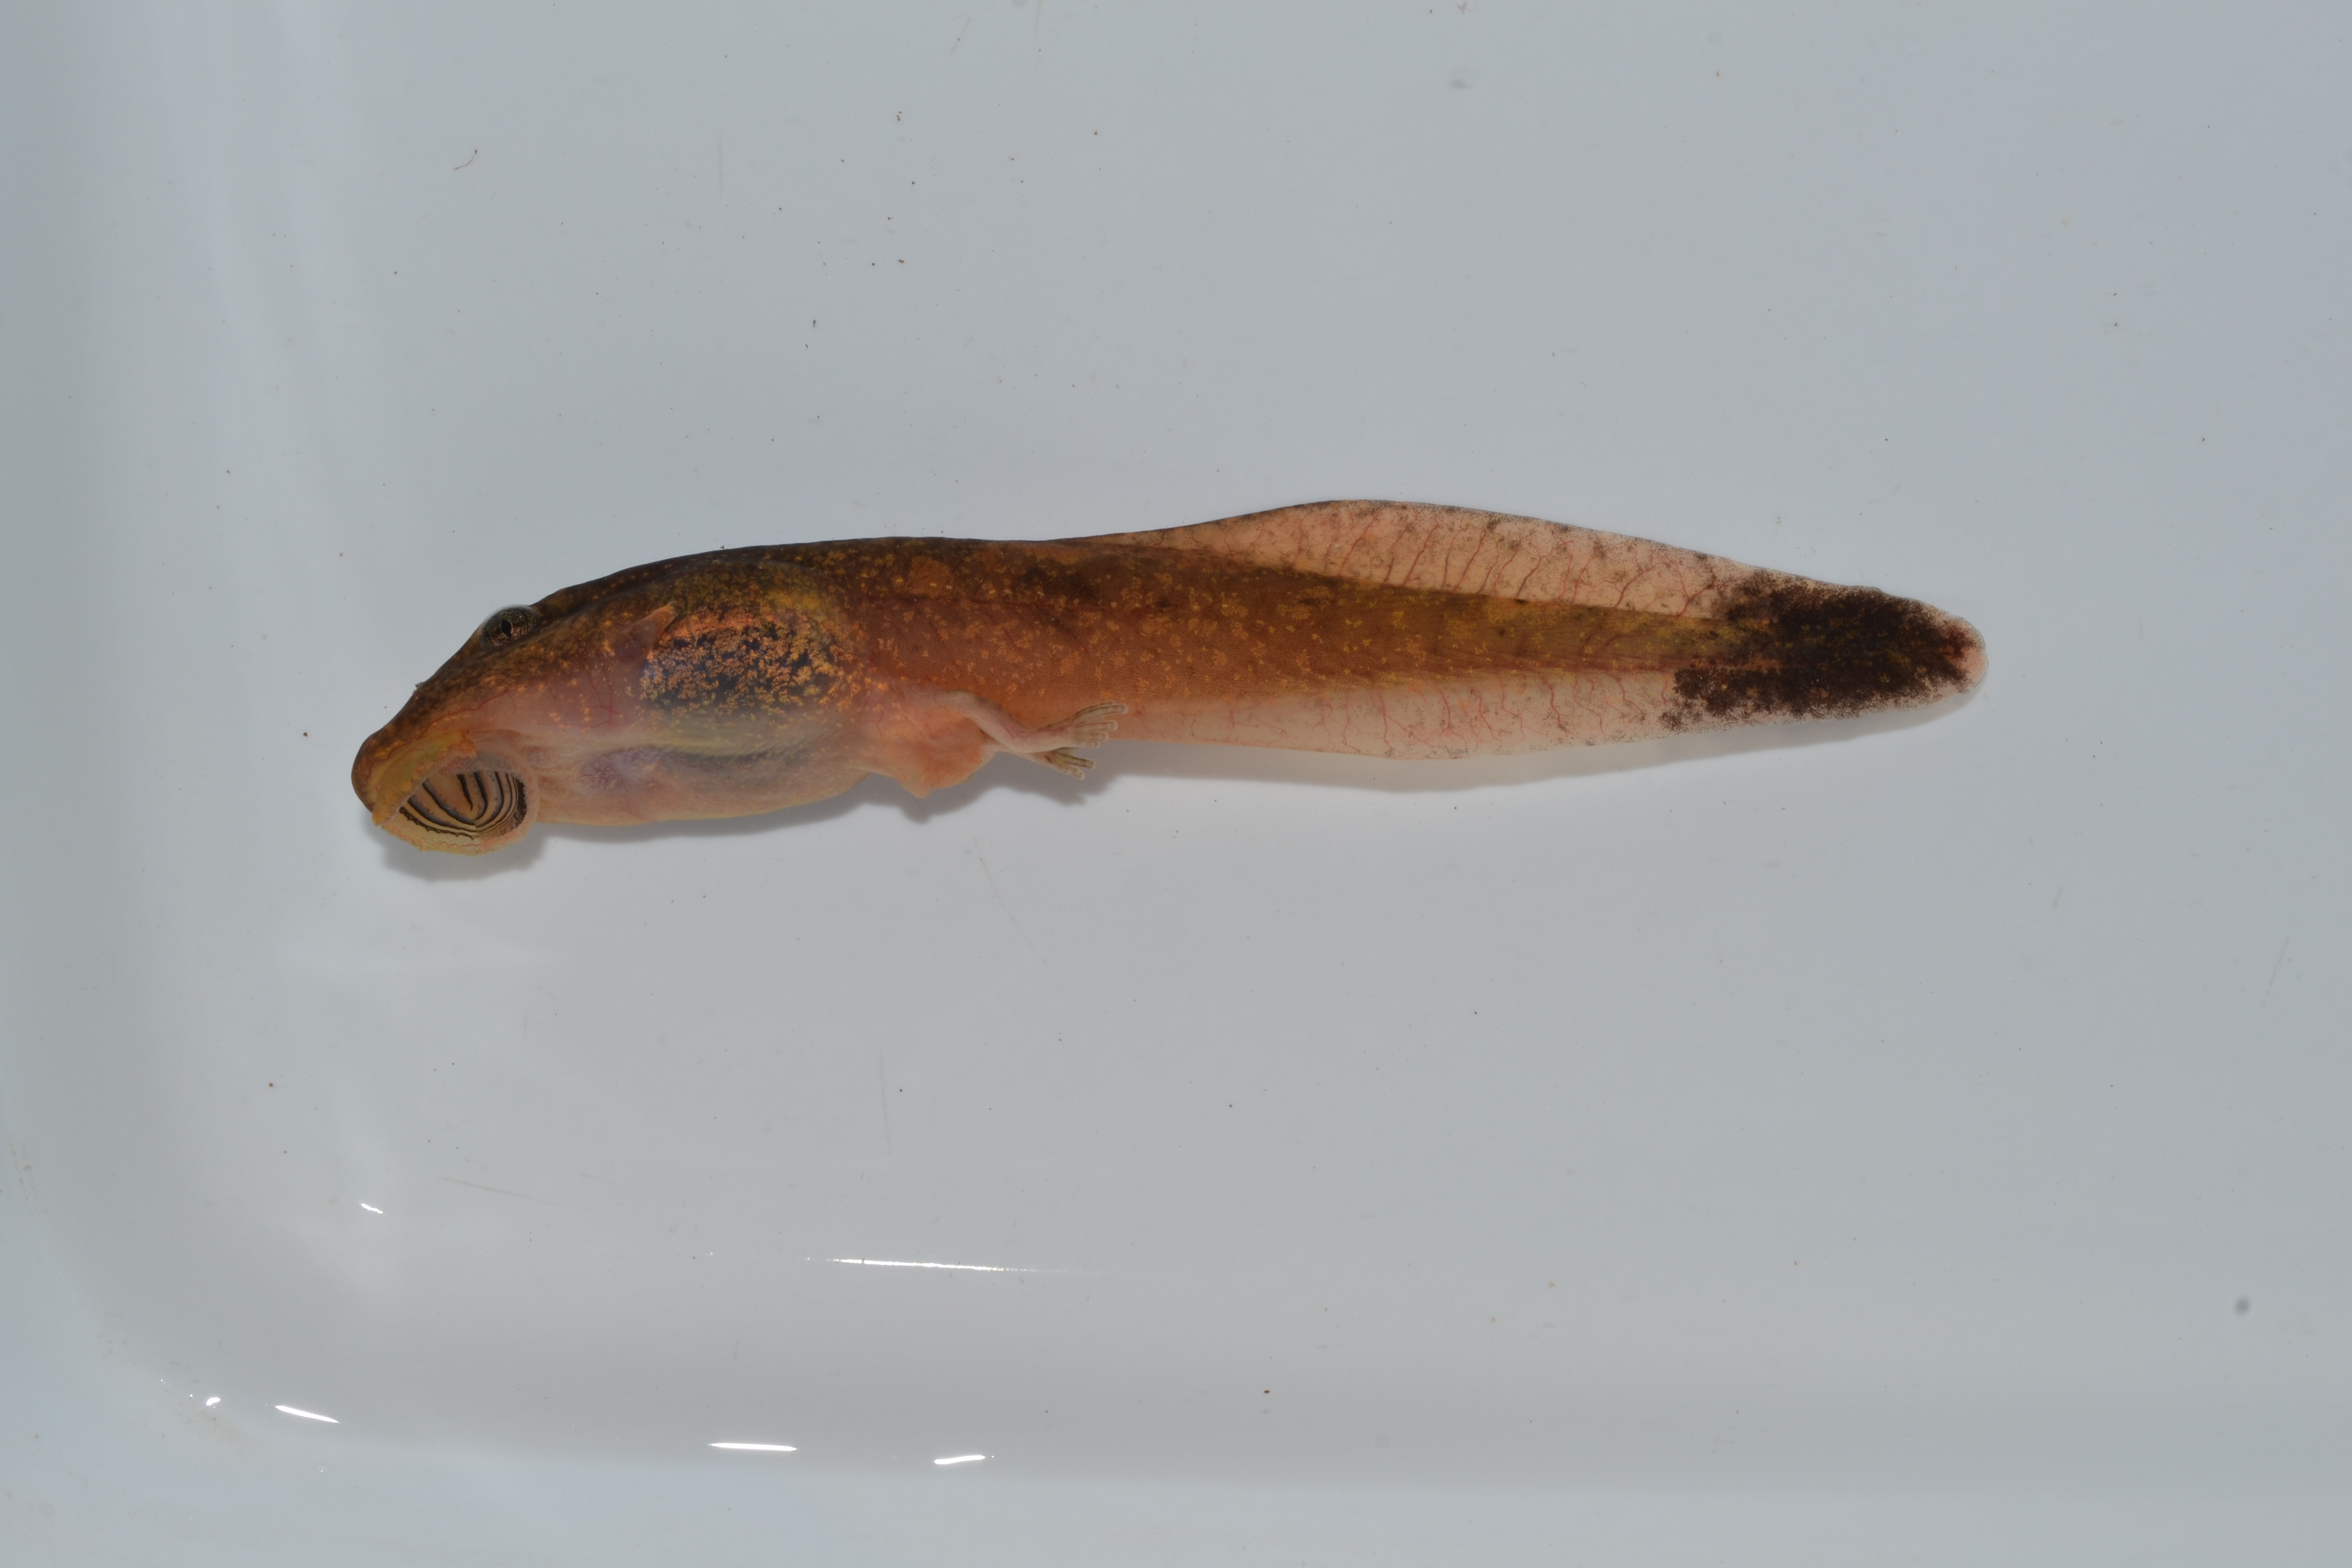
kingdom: Animalia
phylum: Chordata
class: Amphibia
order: Anura
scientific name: Anura
